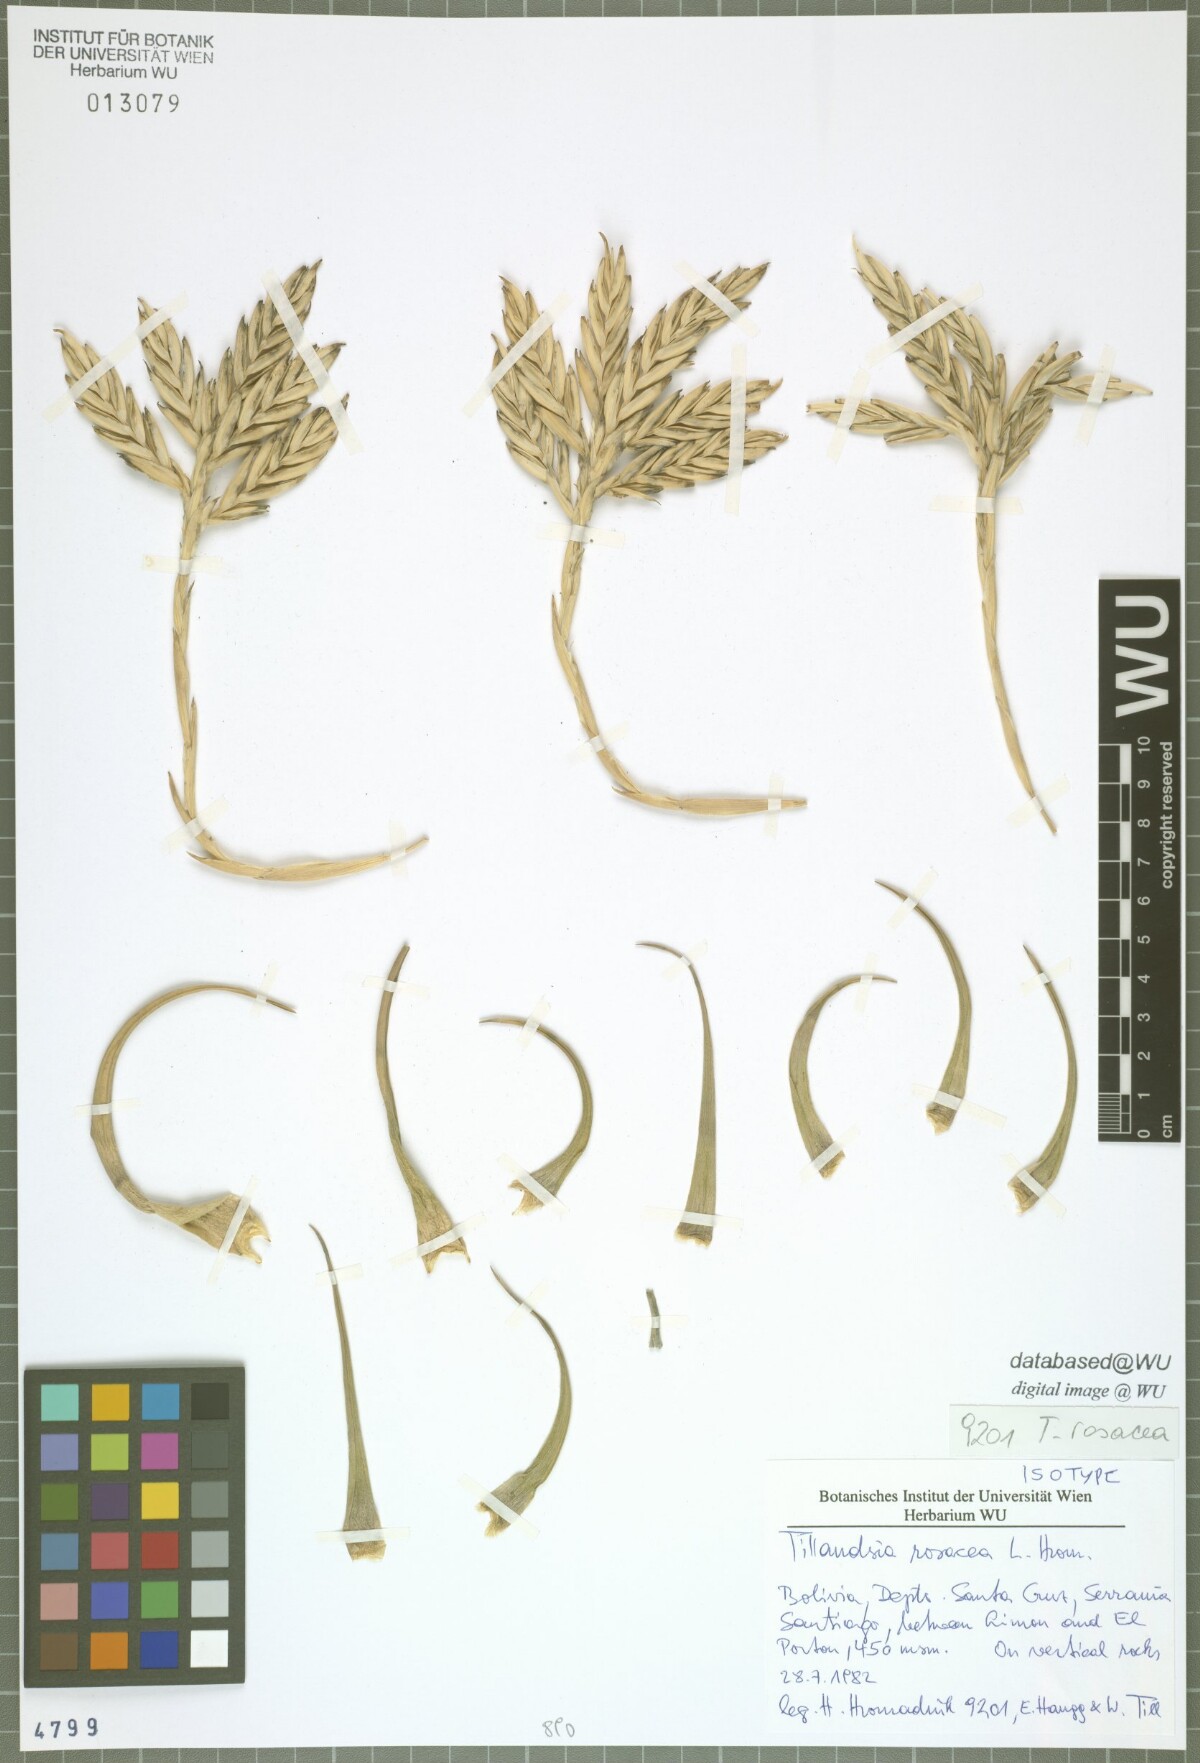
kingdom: Plantae
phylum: Tracheophyta
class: Liliopsida
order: Poales
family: Bromeliaceae
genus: Tillandsia
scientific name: Tillandsia rosacea
